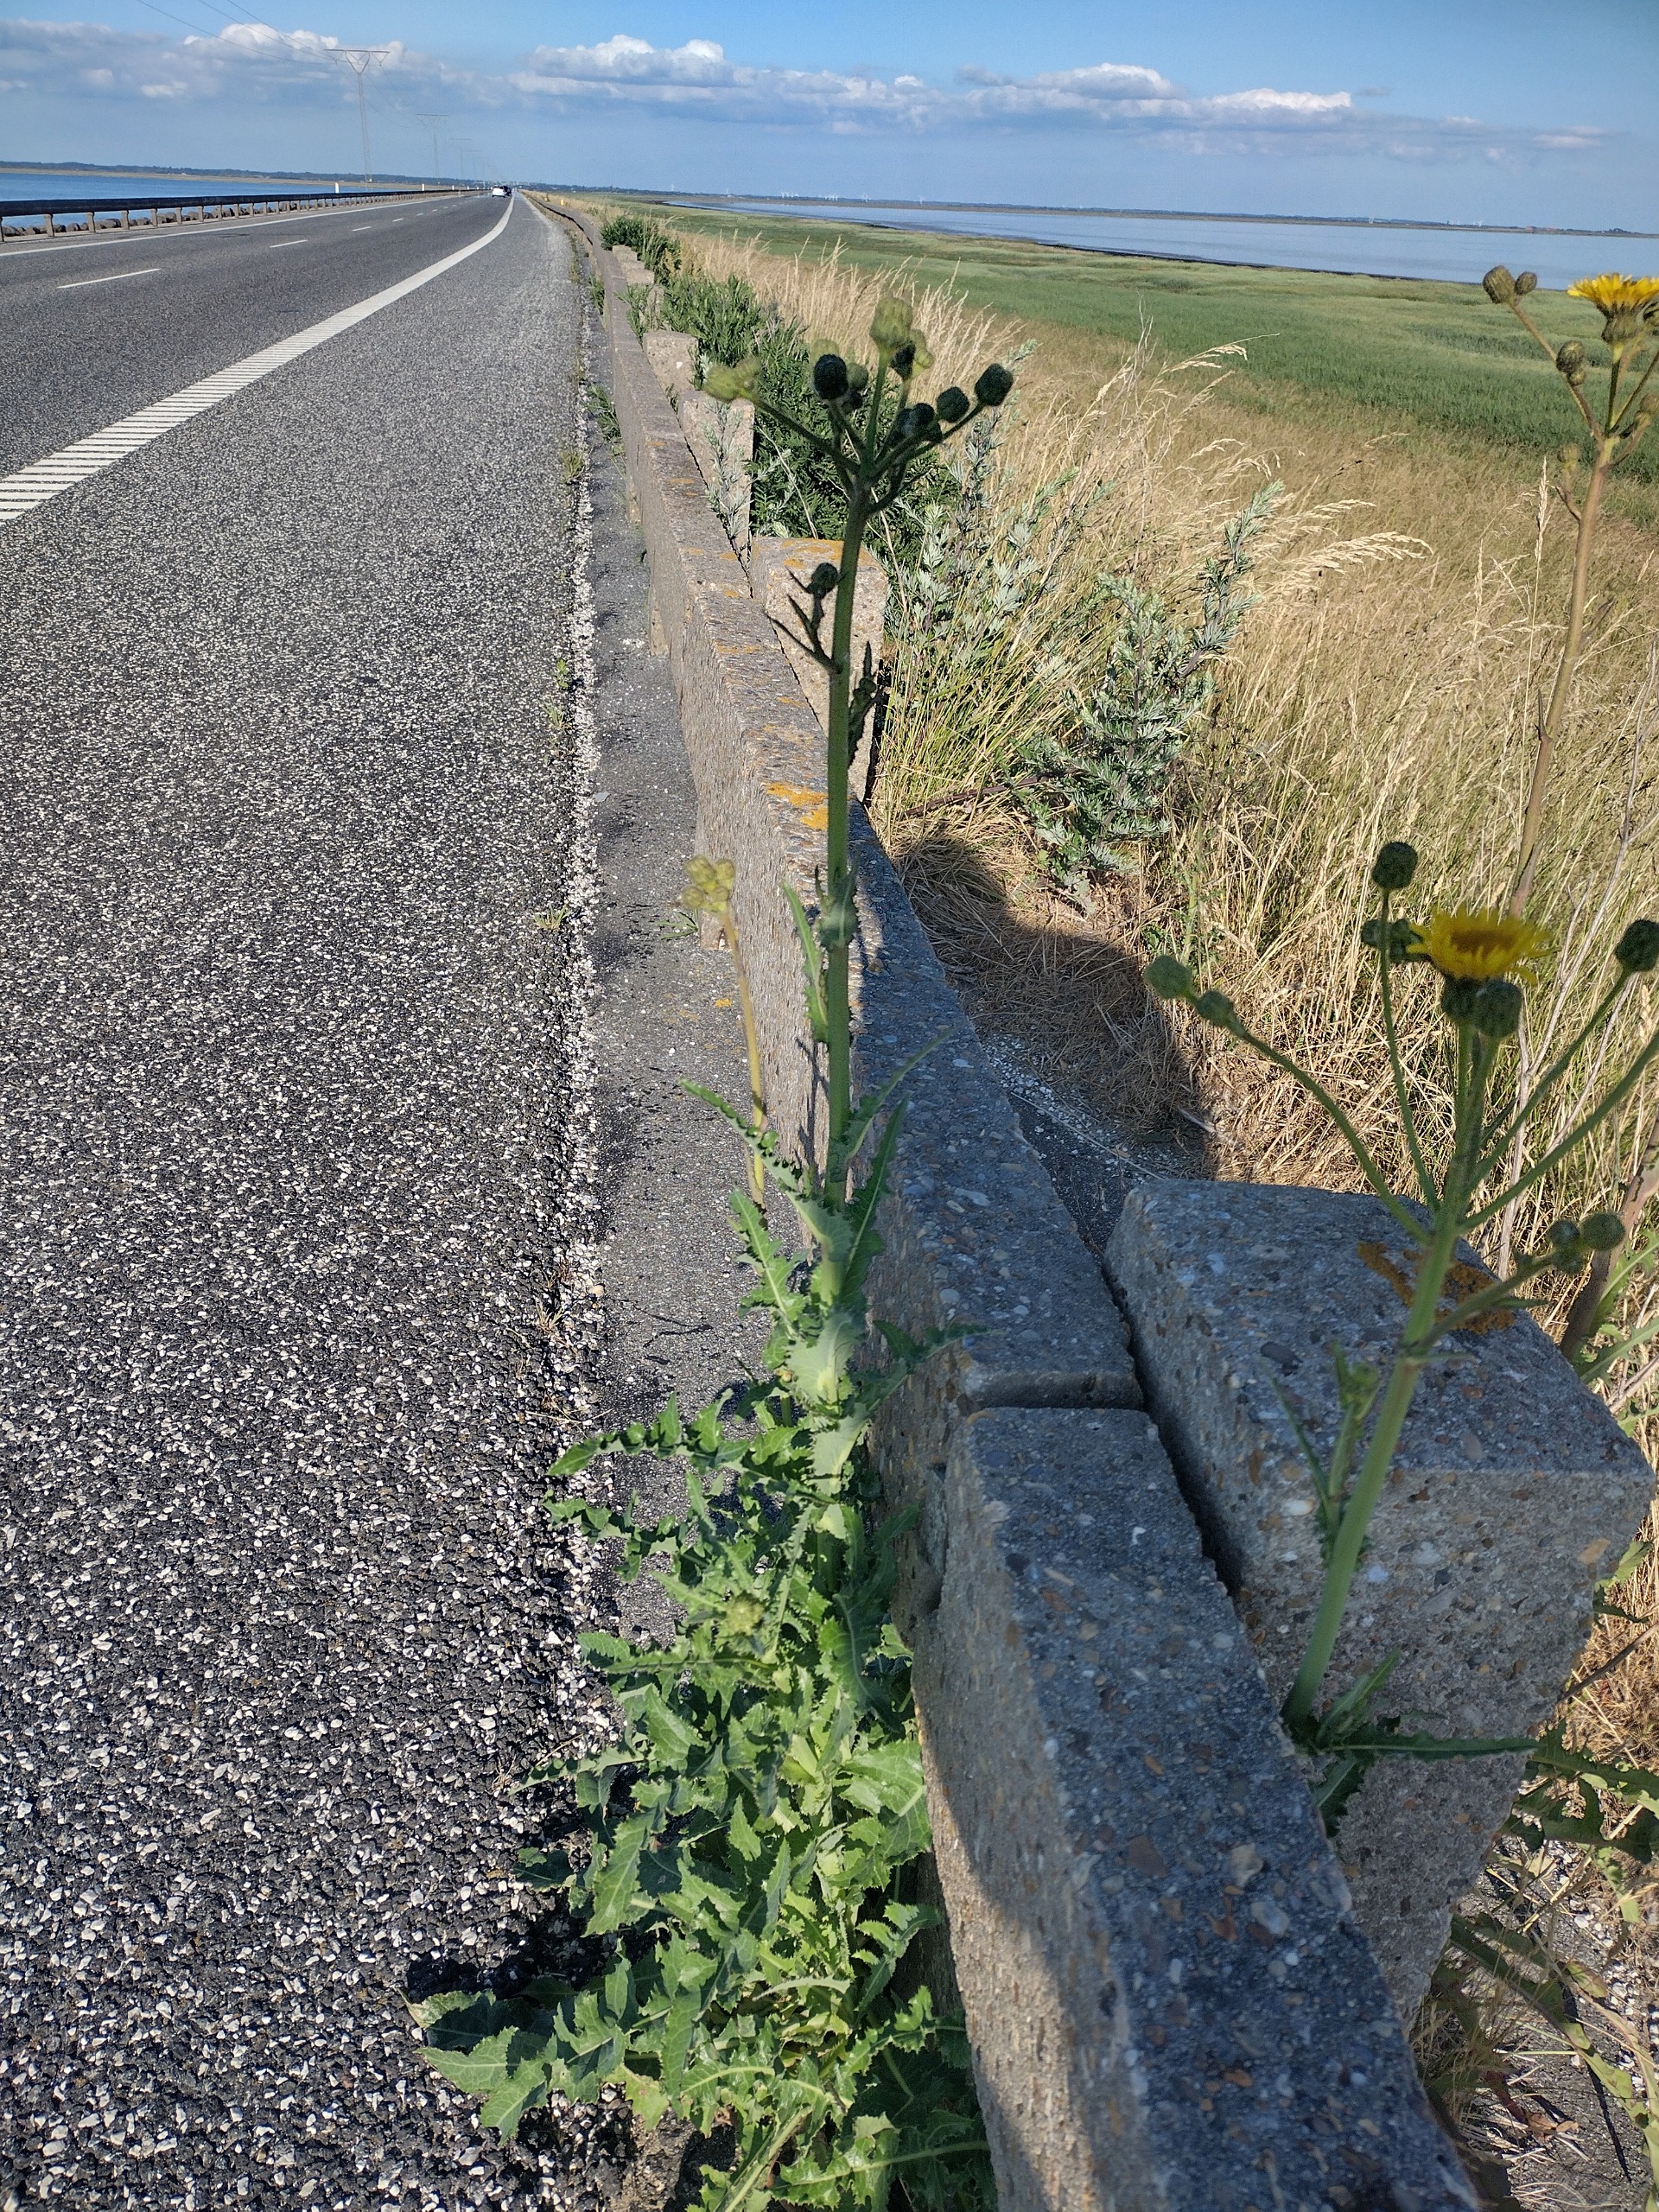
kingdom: Plantae
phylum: Tracheophyta
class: Magnoliopsida
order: Asterales
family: Asteraceae
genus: Sonchus
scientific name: Sonchus arvensis
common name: Ager-svinemælk
